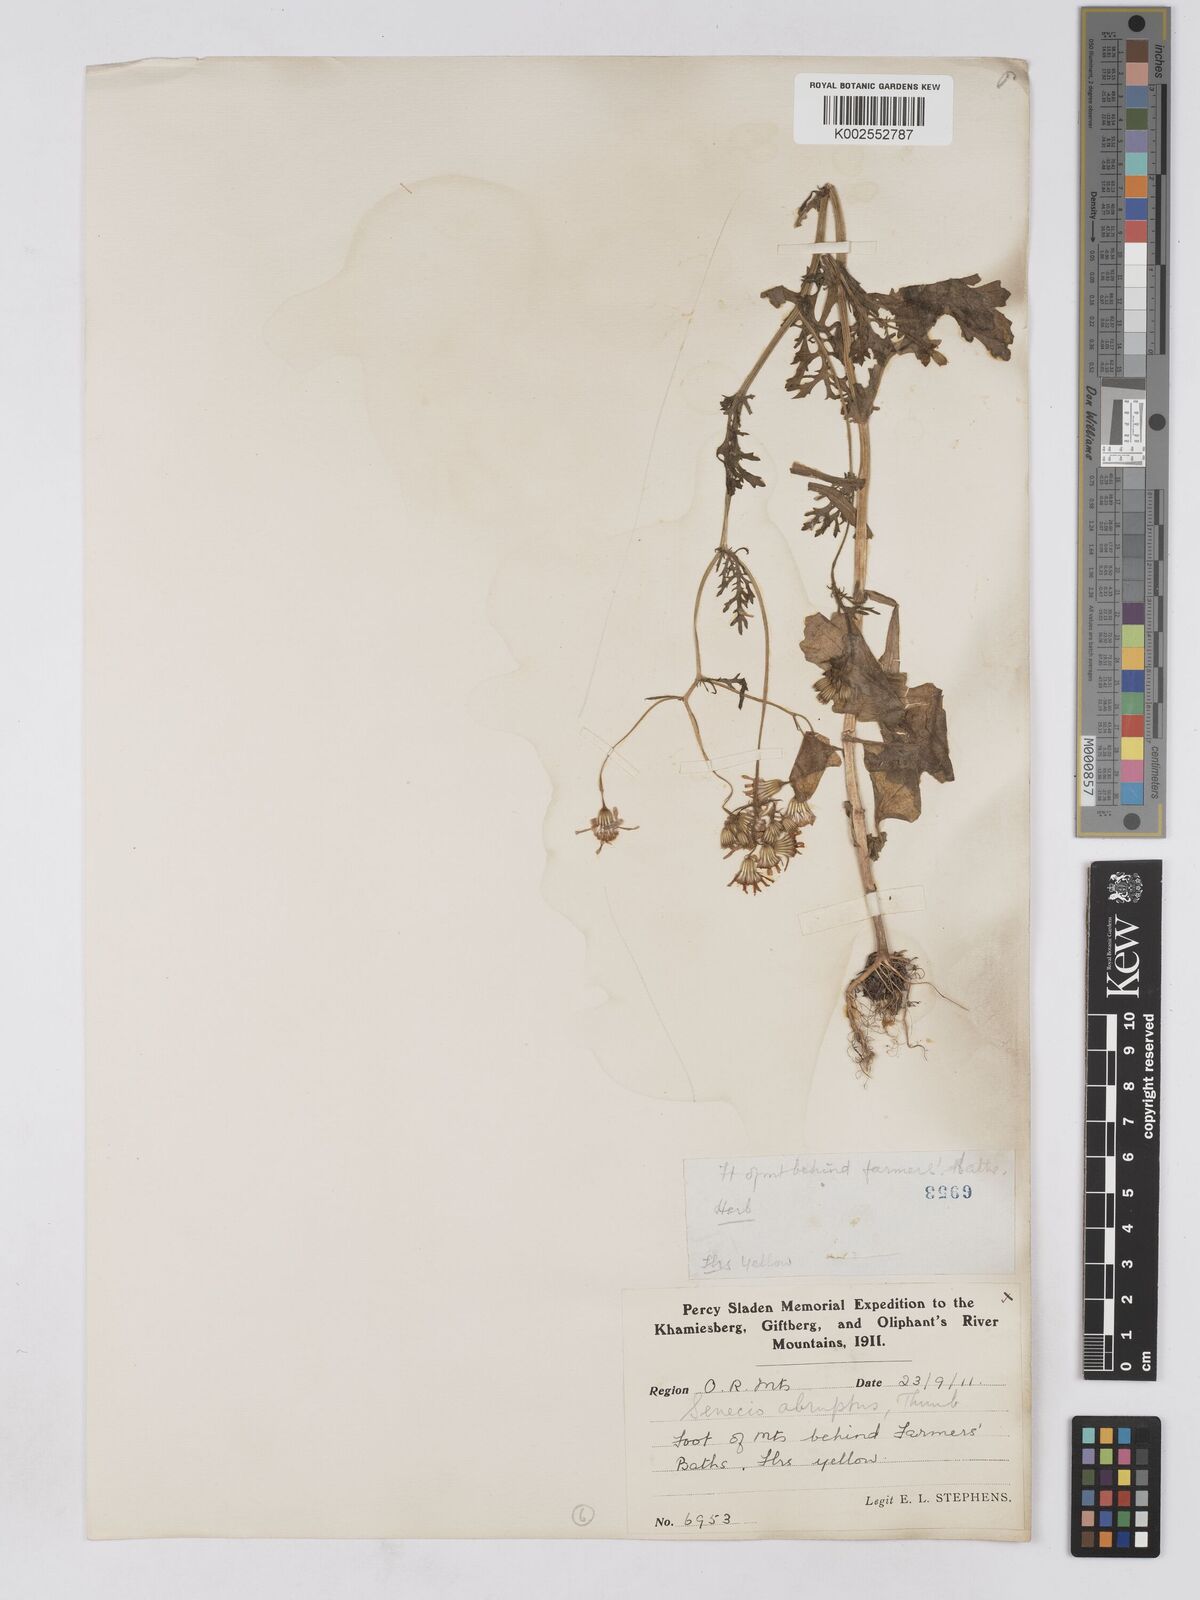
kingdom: Plantae
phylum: Tracheophyta
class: Magnoliopsida
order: Asterales
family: Asteraceae
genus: Senecio
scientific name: Senecio abruptus
